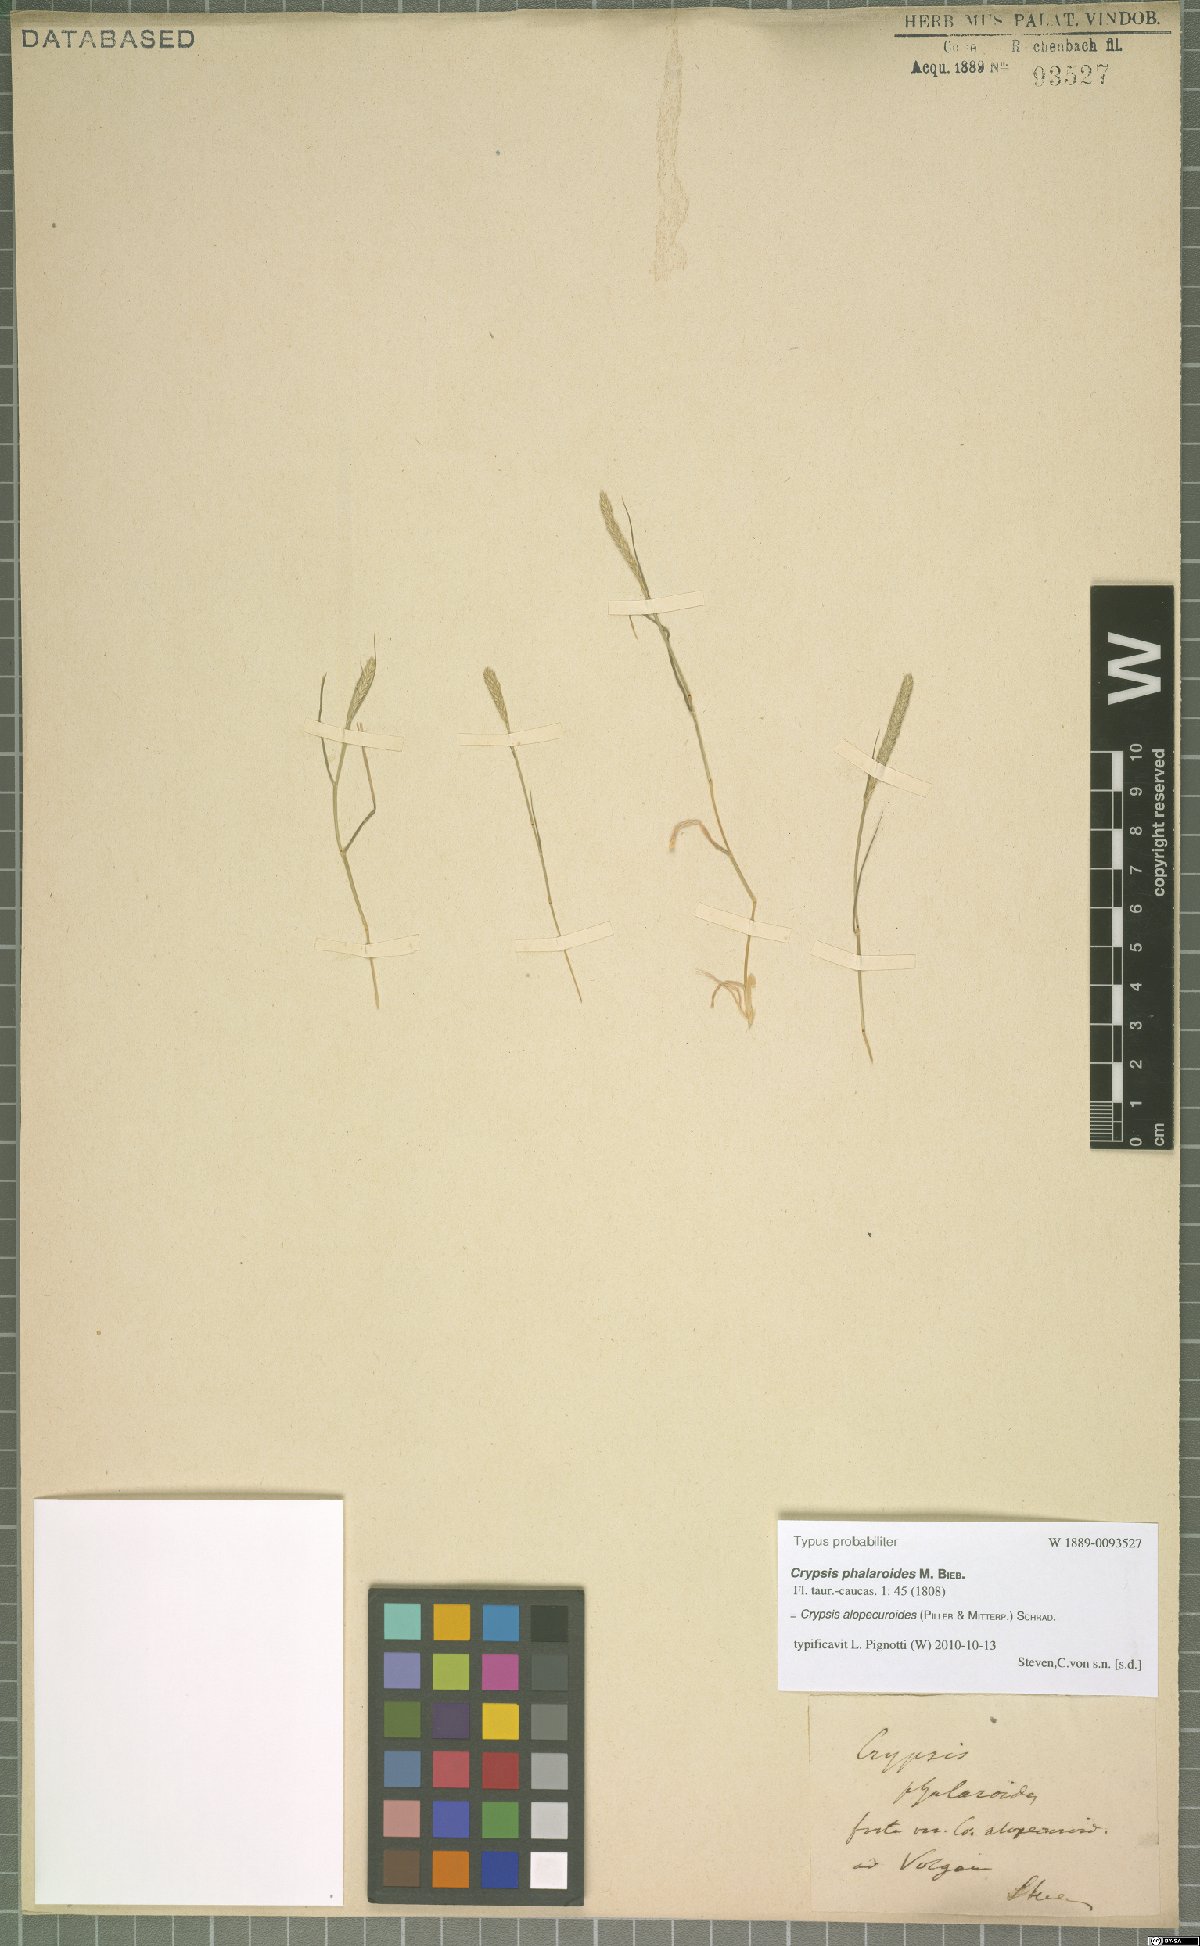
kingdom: Plantae
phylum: Tracheophyta
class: Liliopsida
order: Poales
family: Poaceae
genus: Sporobolus
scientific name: Sporobolus alopecuroides
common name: Foxtail pricklegrass
